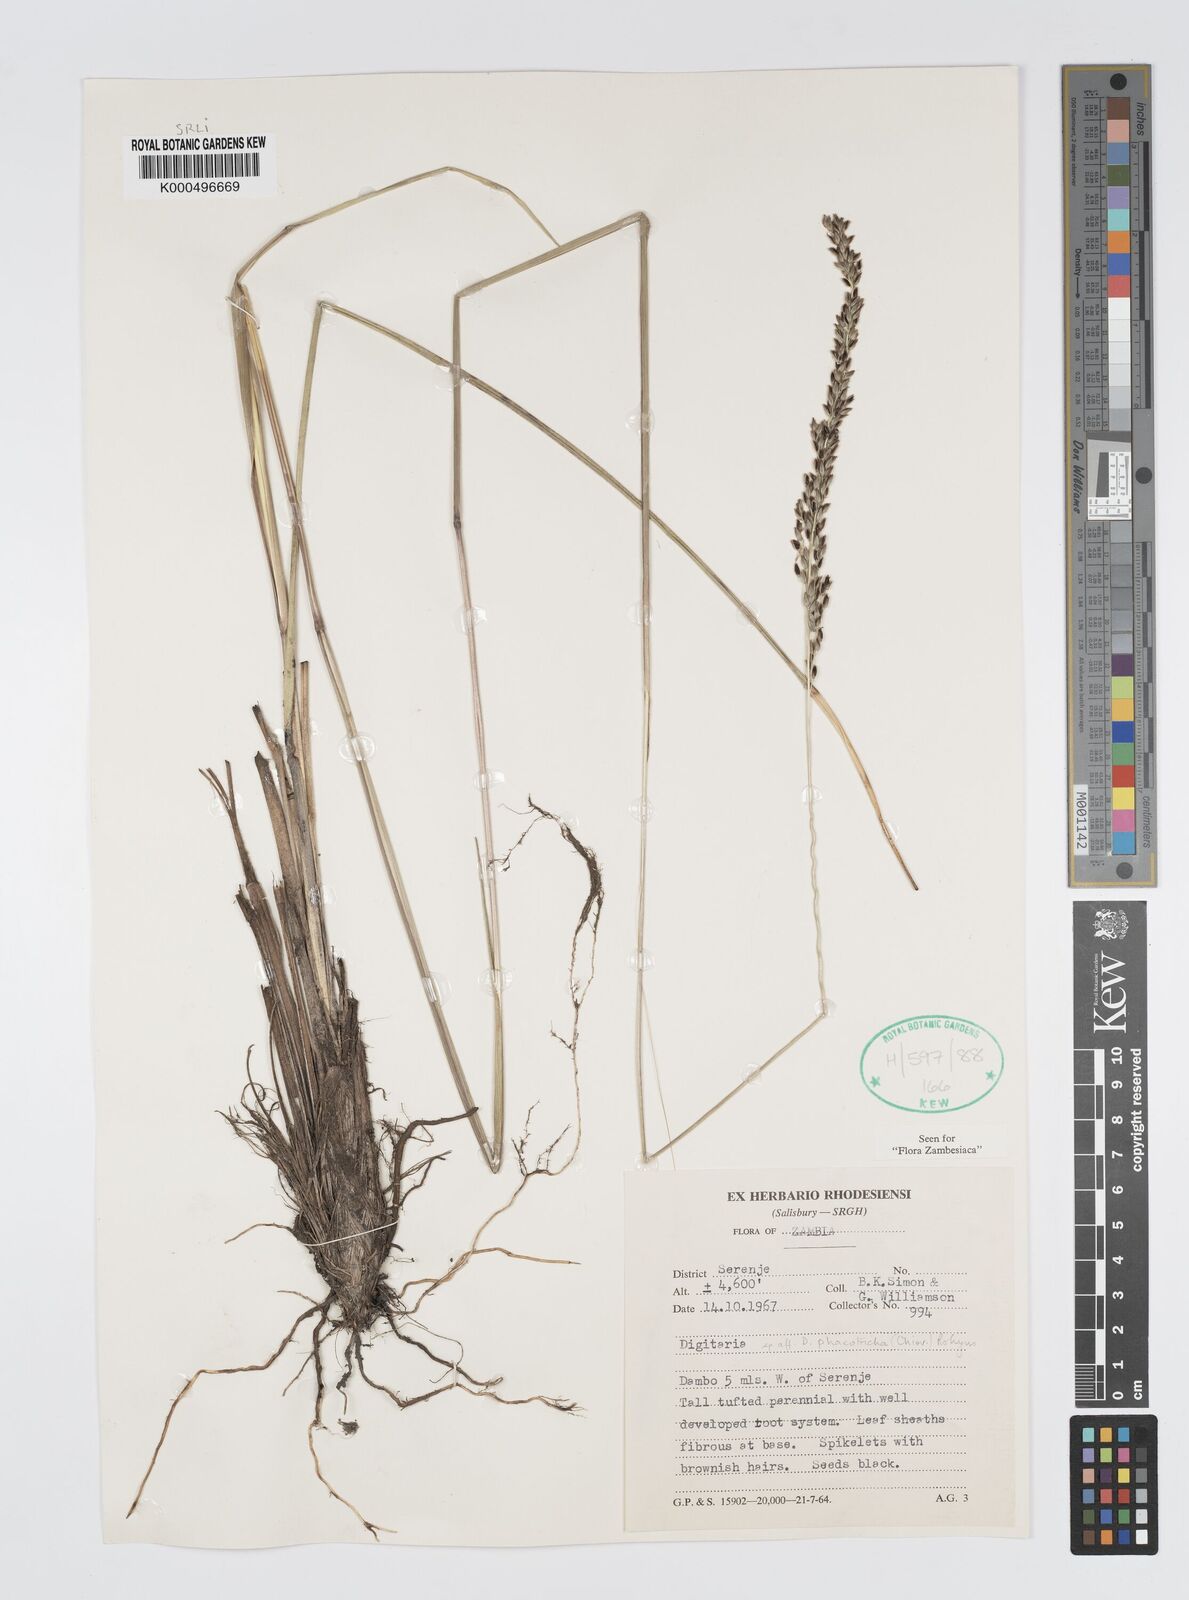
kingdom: Plantae
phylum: Tracheophyta
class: Liliopsida
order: Poales
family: Poaceae
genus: Digitaria
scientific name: Digitaria phaeotricha
